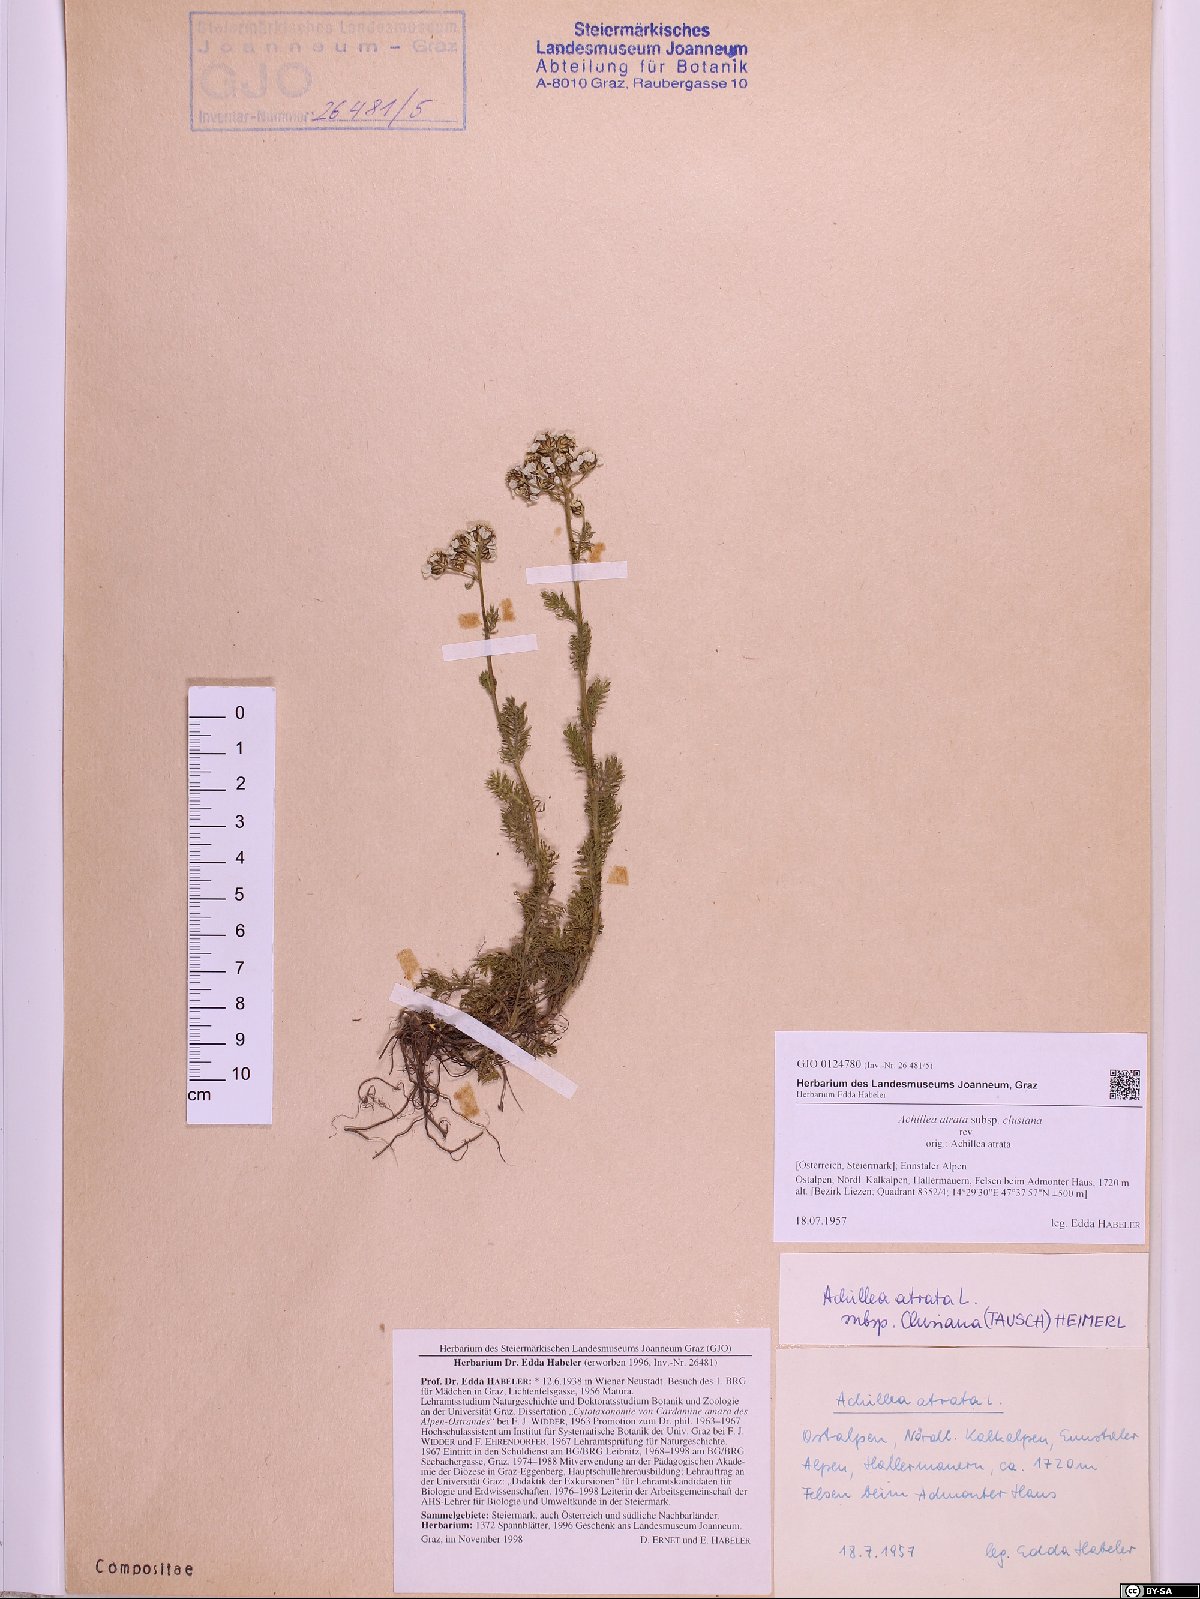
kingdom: Plantae
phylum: Tracheophyta
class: Magnoliopsida
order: Asterales
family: Asteraceae
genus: Achillea
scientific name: Achillea clusiana
